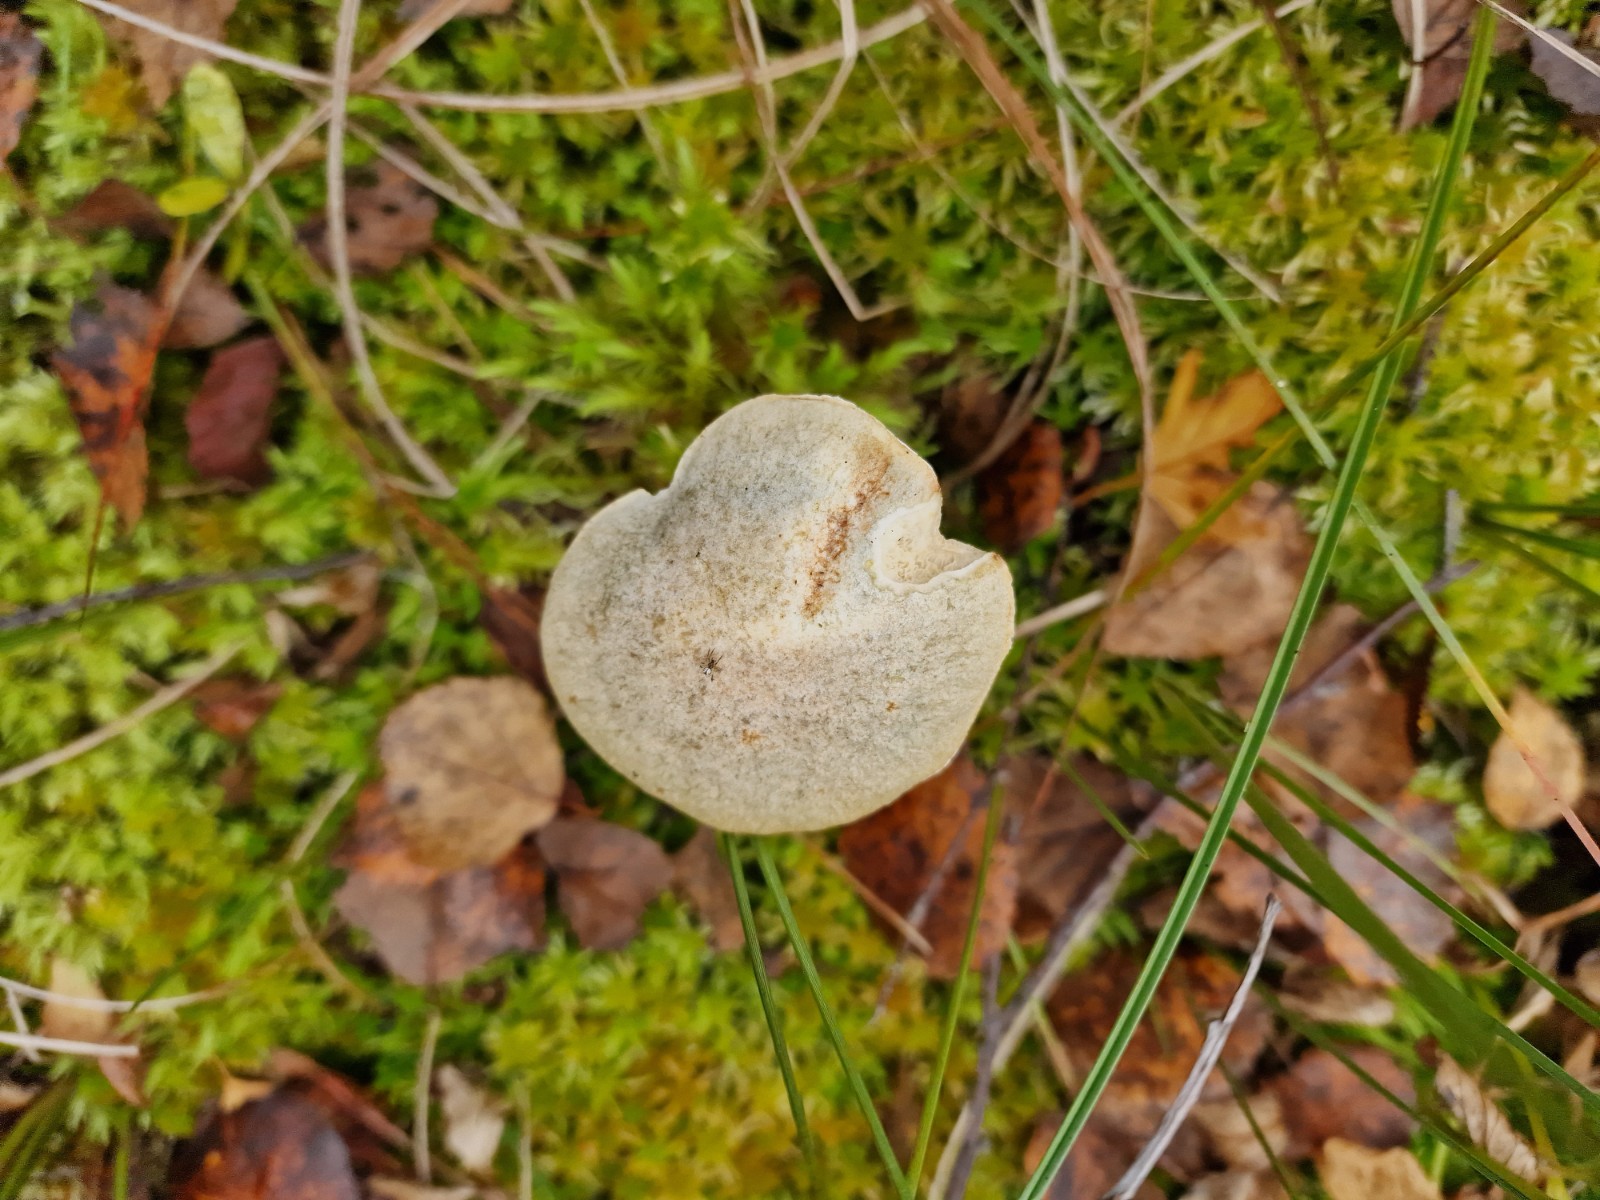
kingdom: Fungi
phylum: Basidiomycota
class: Agaricomycetes
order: Boletales
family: Boletaceae
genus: Leccinum
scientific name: Leccinum scabrum
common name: hvid skælrørhat
